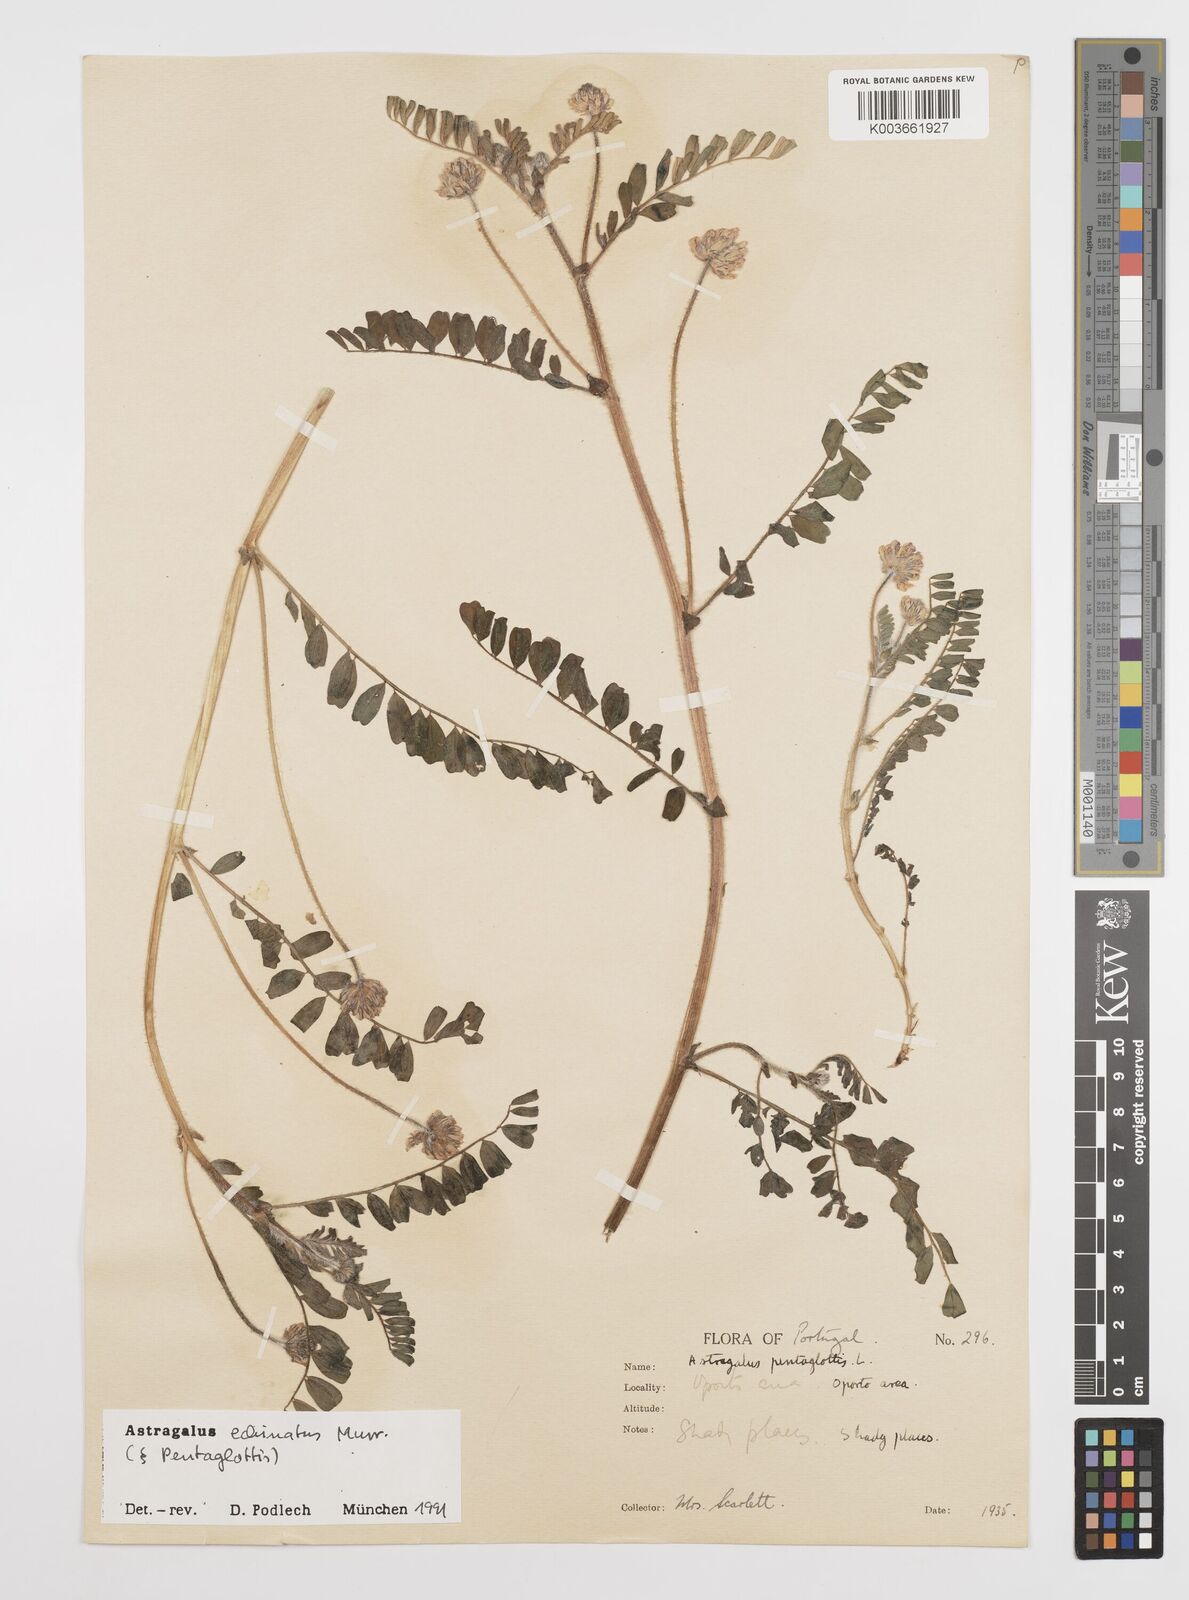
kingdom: Plantae
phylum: Tracheophyta
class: Magnoliopsida
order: Fabales
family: Fabaceae
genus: Astragalus
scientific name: Astragalus echinatus
